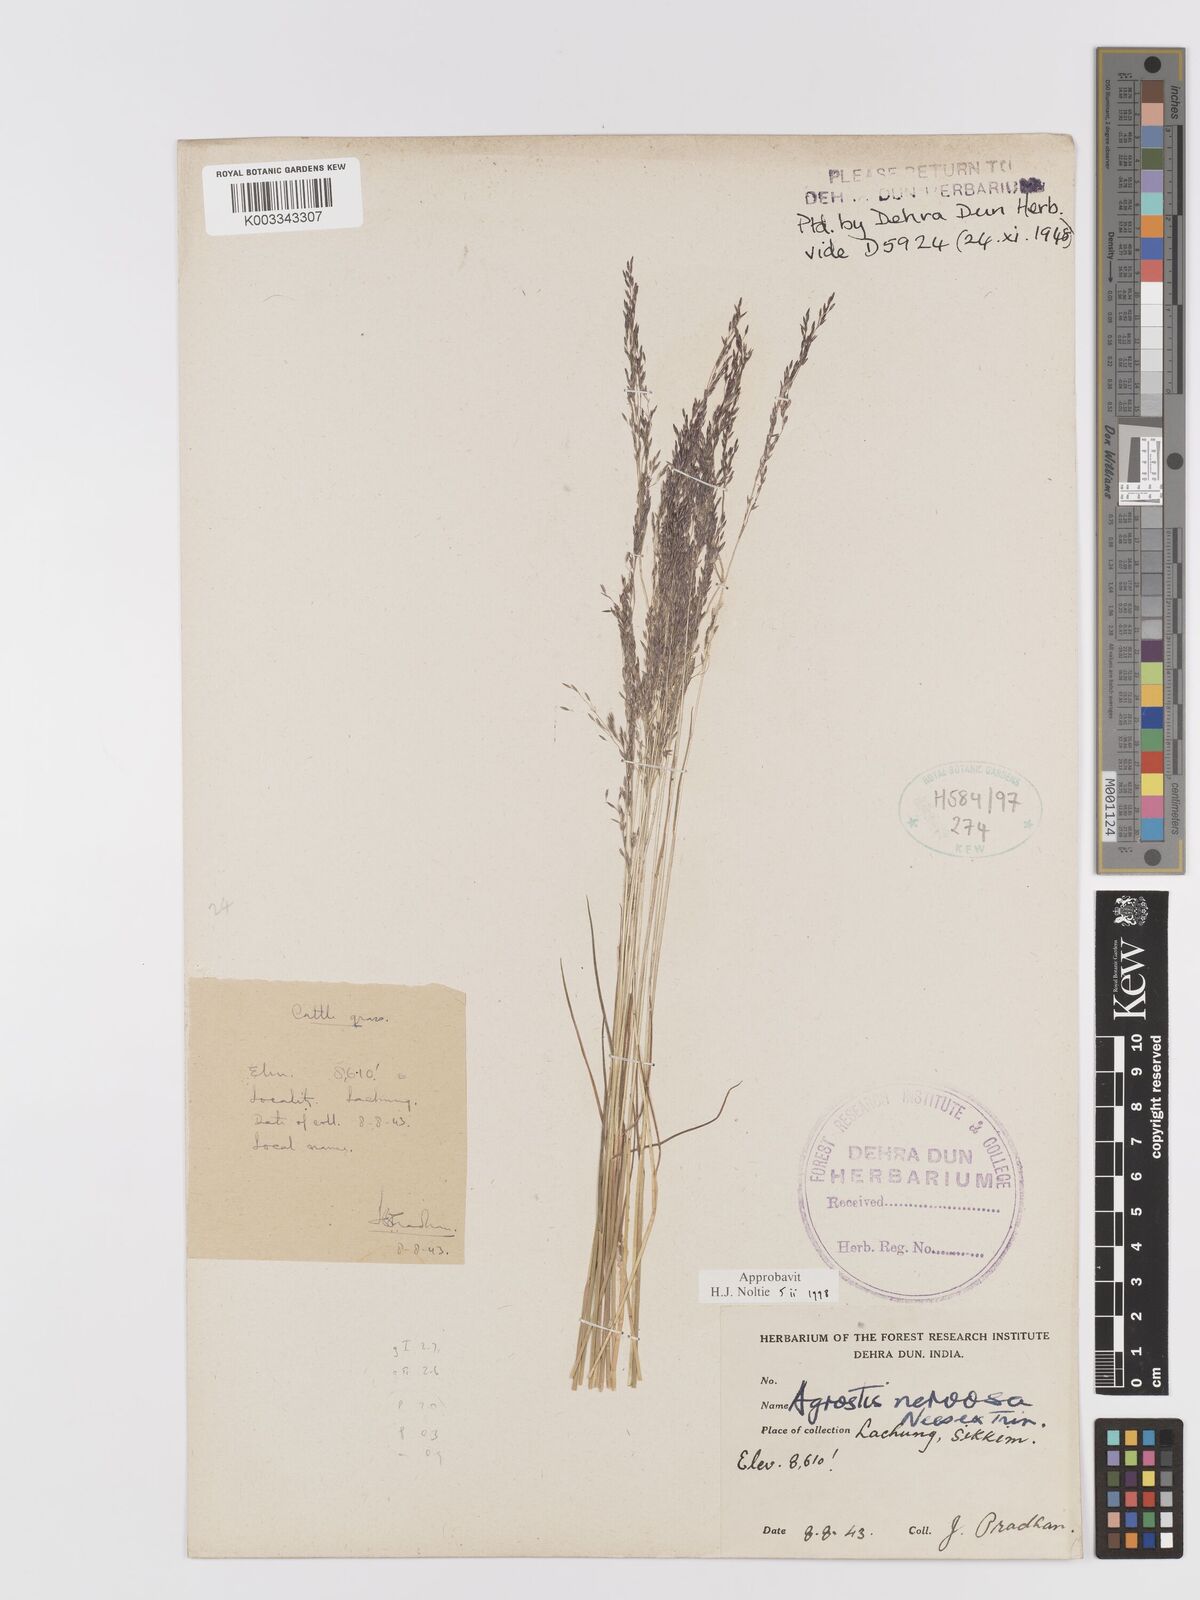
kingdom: Plantae
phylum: Tracheophyta
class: Liliopsida
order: Poales
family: Poaceae
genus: Agrostis
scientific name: Agrostis nervosa
